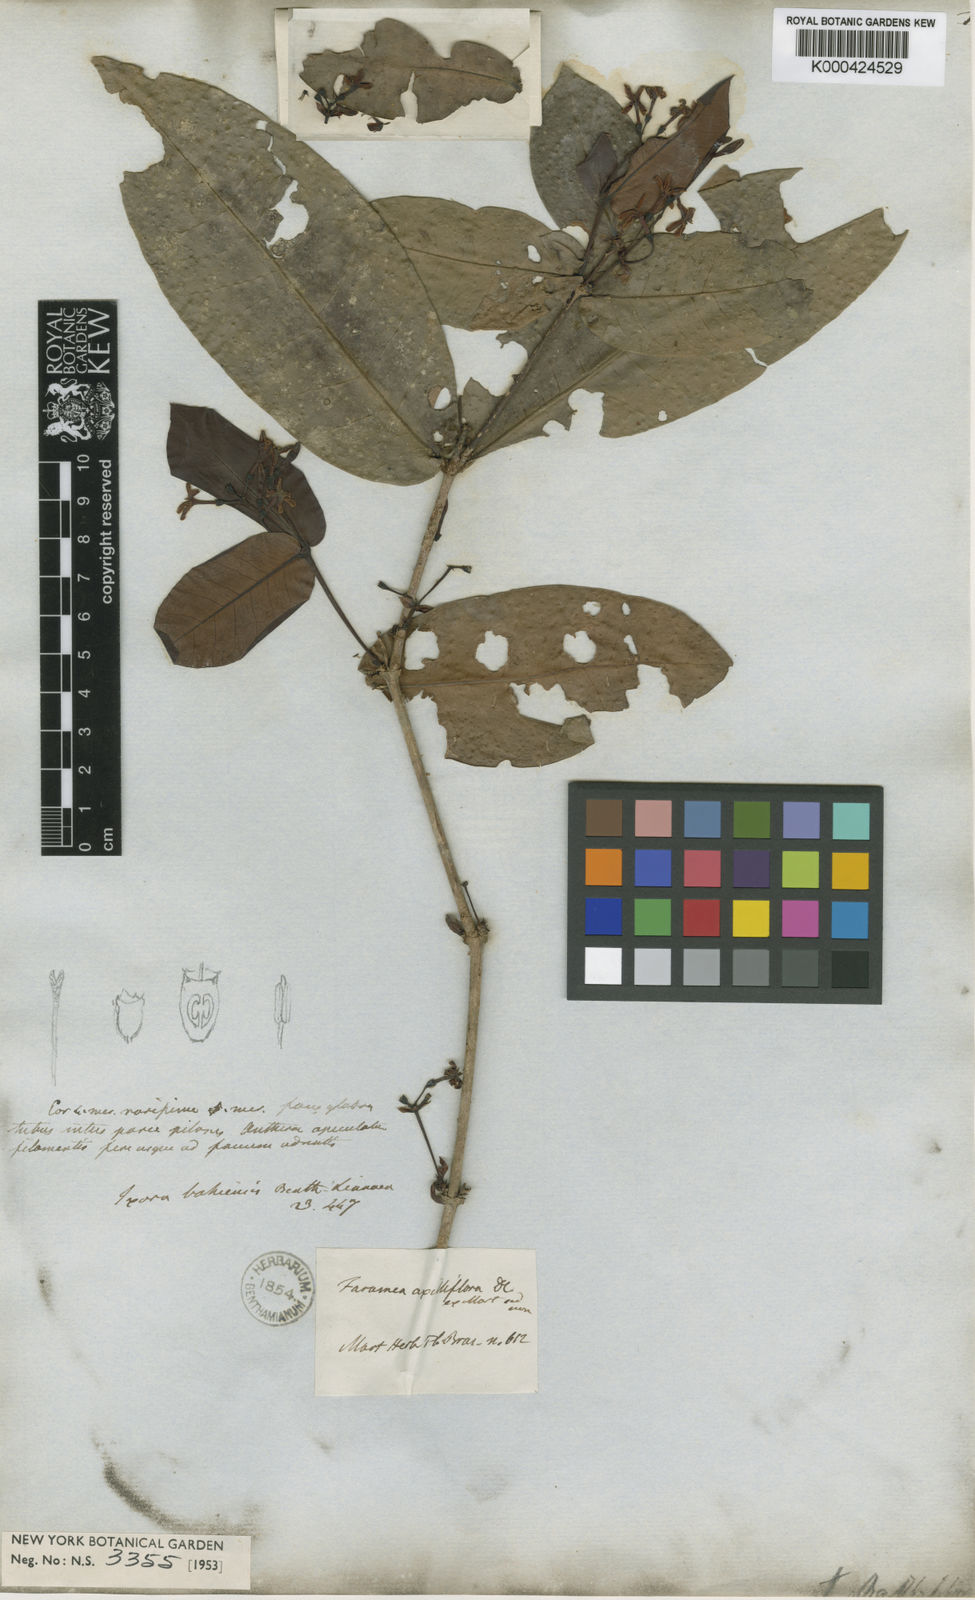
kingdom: Plantae
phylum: Tracheophyta
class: Magnoliopsida
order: Gentianales
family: Rubiaceae
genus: Ixora
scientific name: Ixora bahiensis
